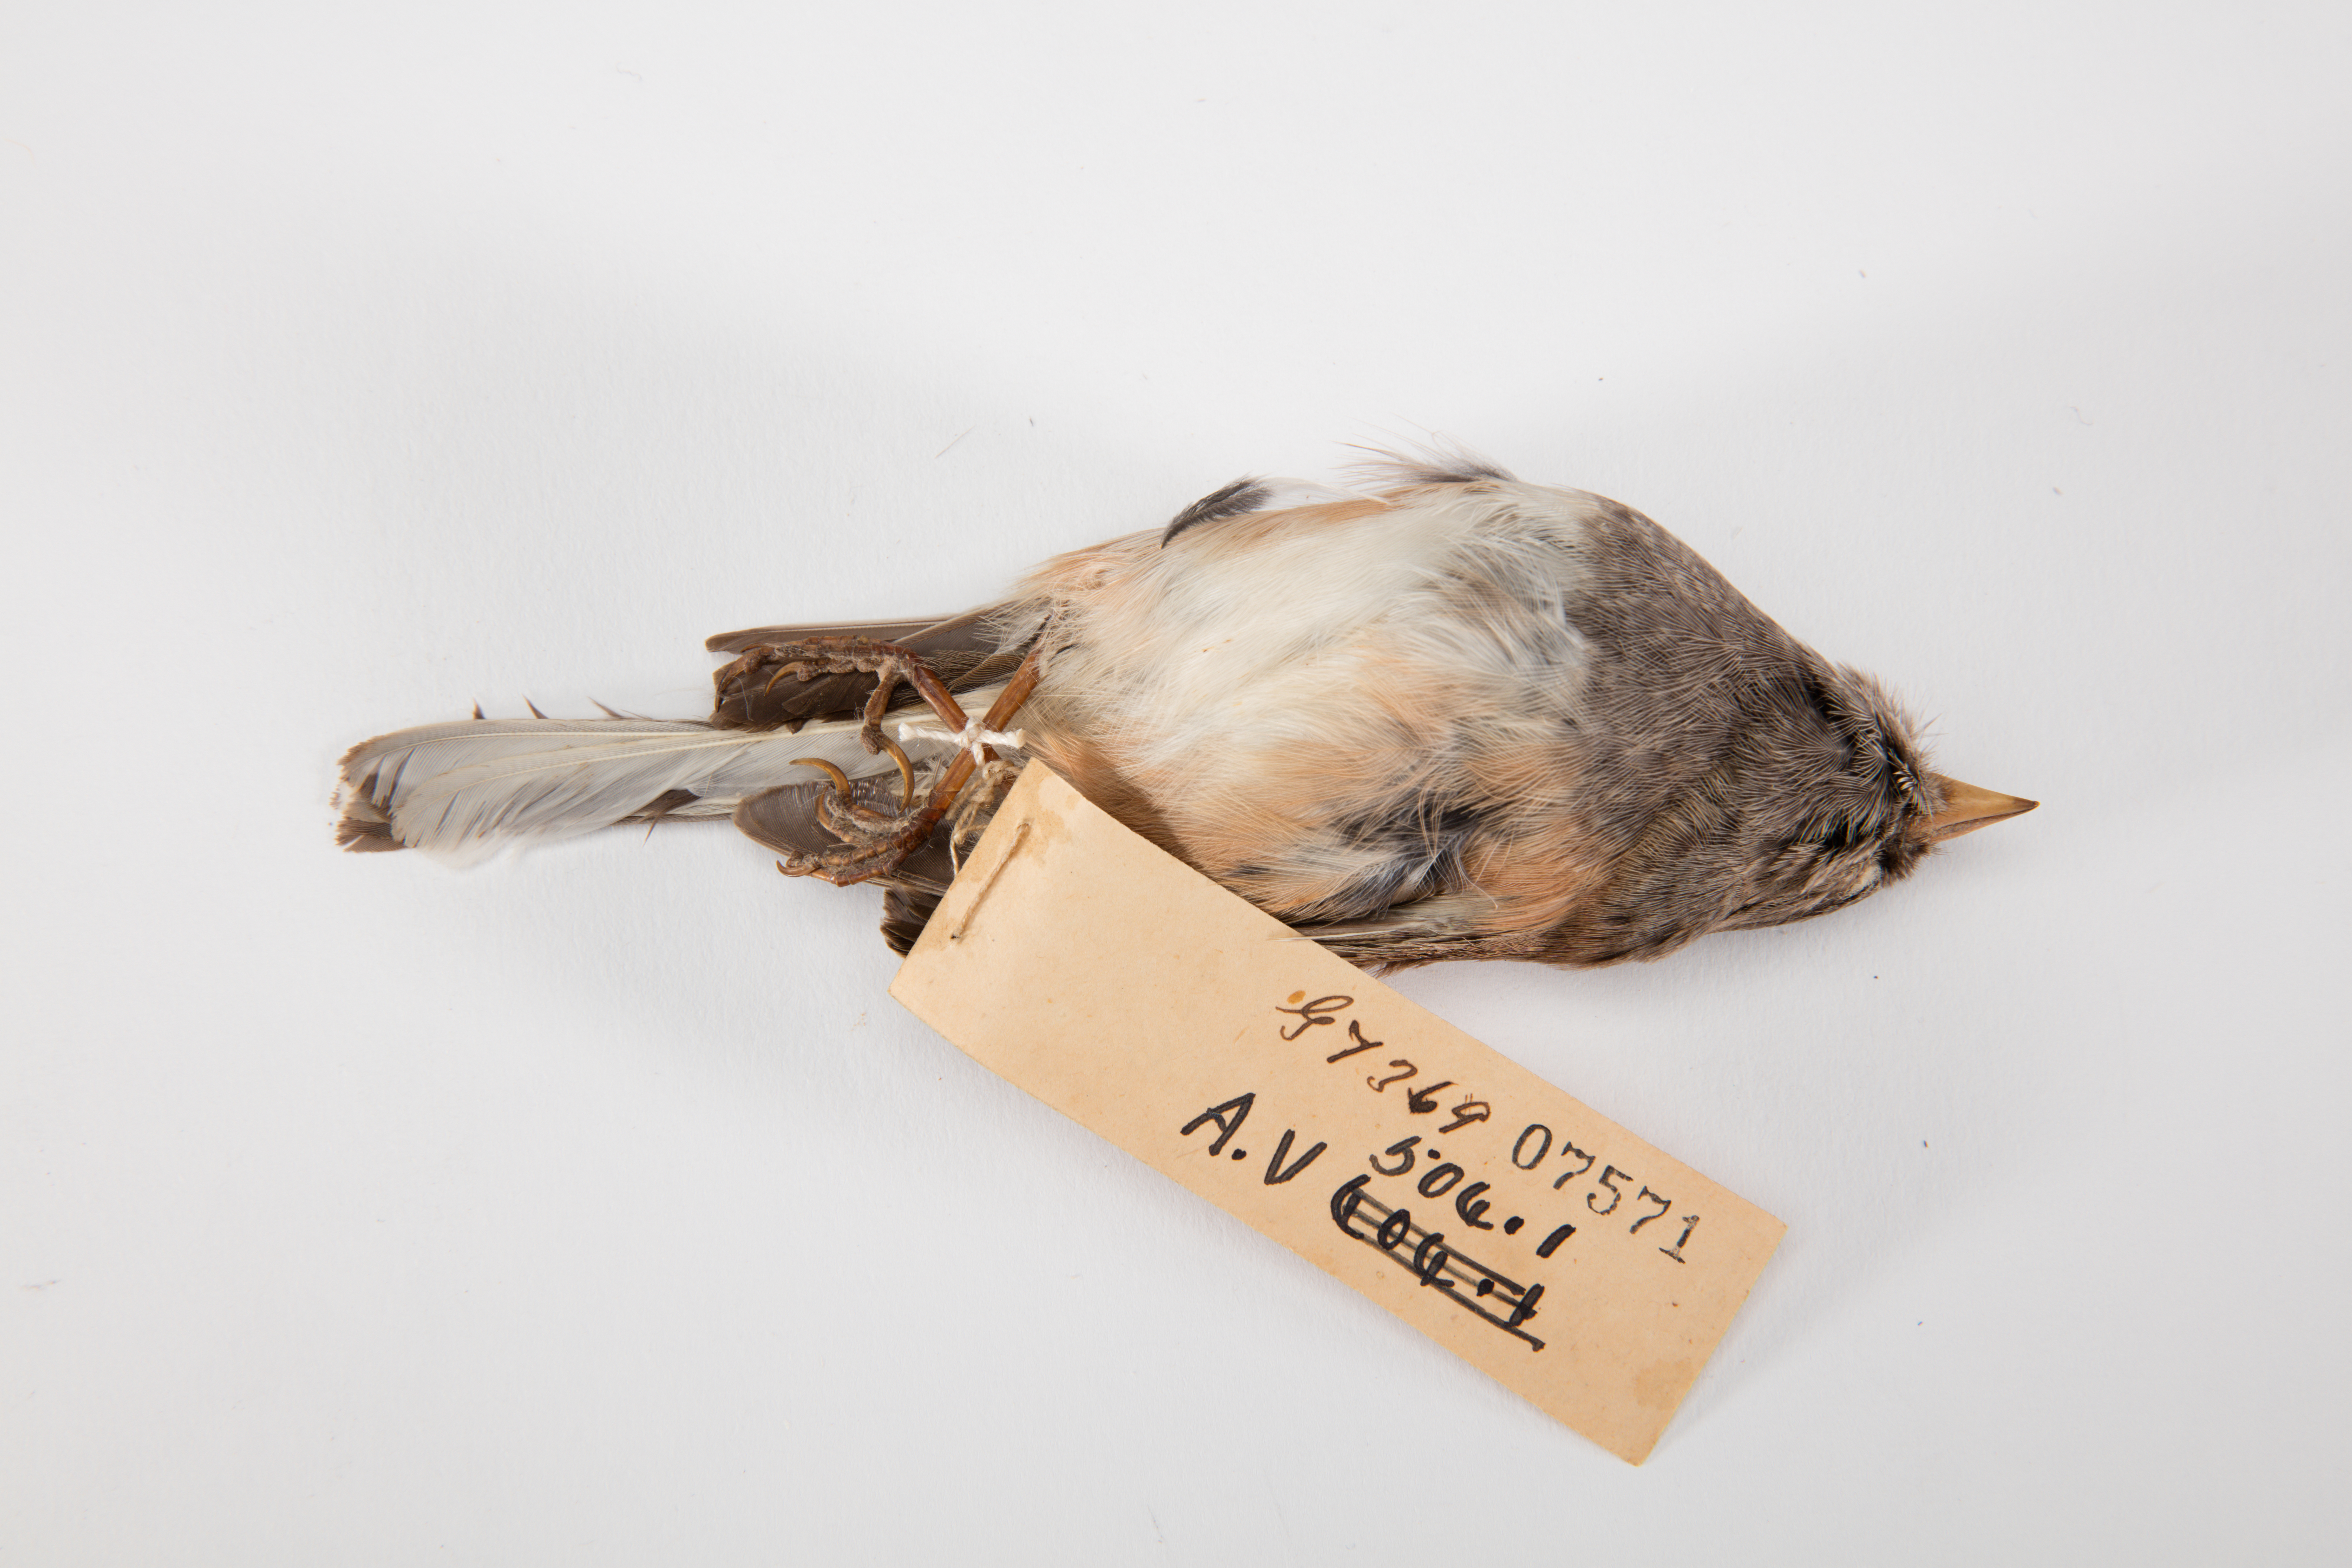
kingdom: Animalia
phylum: Chordata
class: Aves
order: Passeriformes
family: Passerellidae
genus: Junco
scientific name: Junco hyemalis
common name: Dark-eyed junco
